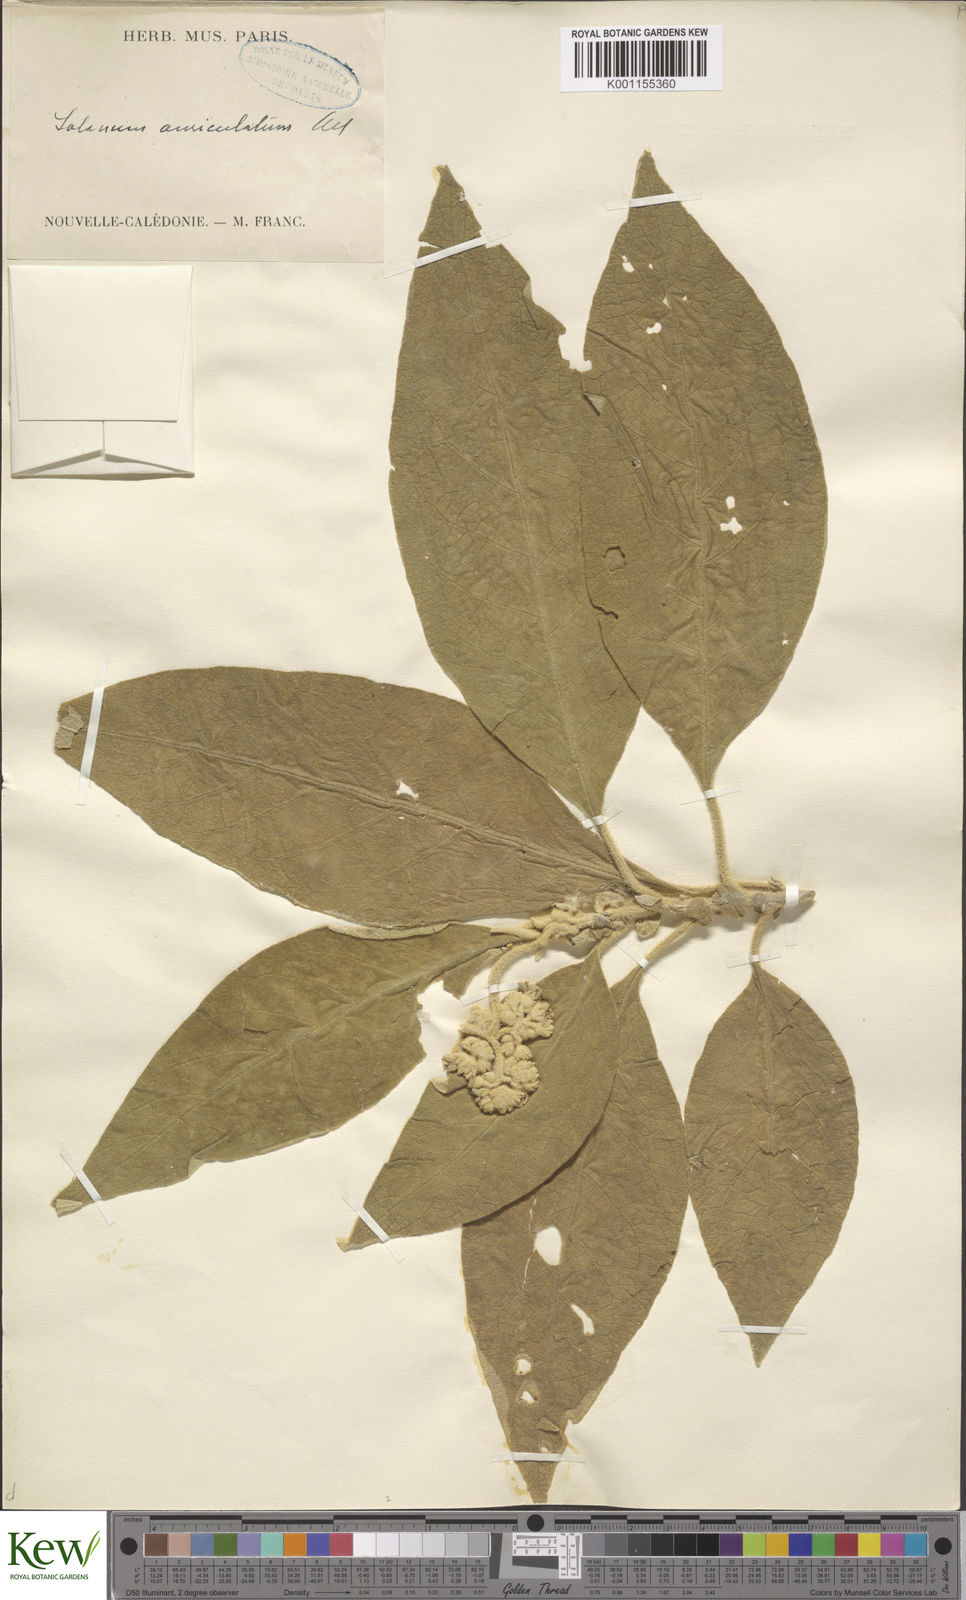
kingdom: Plantae
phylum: Tracheophyta
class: Magnoliopsida
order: Solanales
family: Solanaceae
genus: Solanum
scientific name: Solanum mauritianum
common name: Earleaf nightshade
